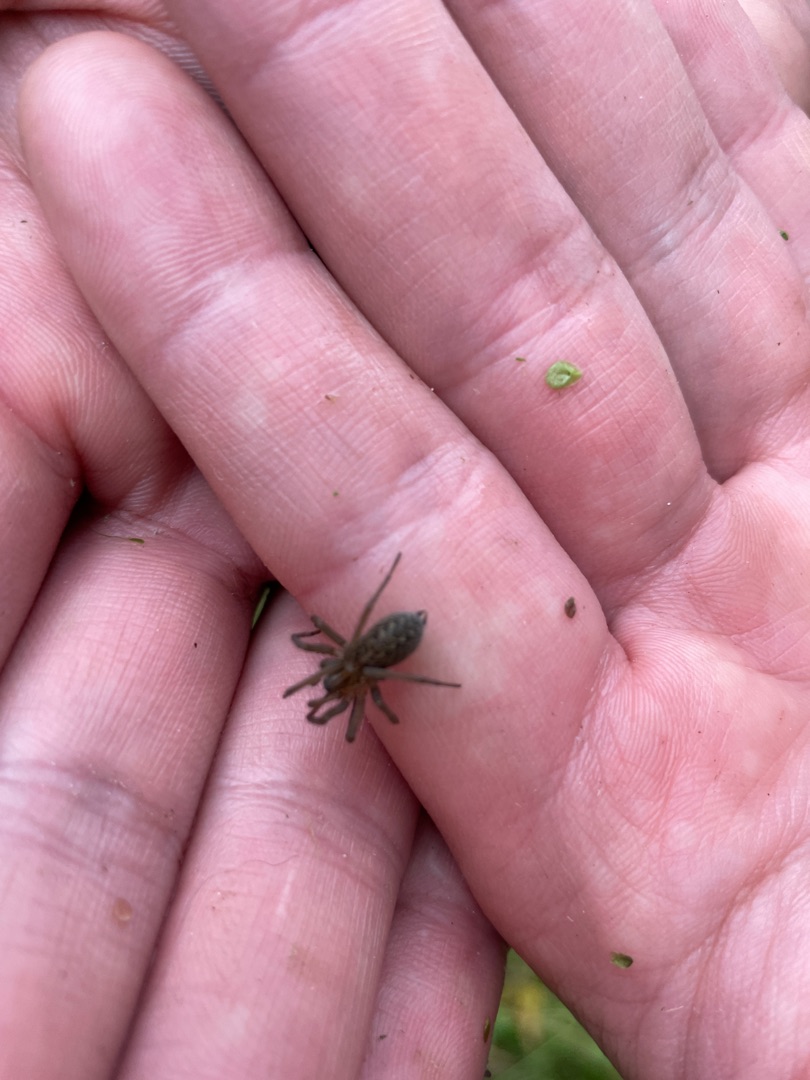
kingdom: Animalia
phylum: Arthropoda
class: Arachnida
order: Araneae
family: Agelenidae
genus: Eratigena
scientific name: Eratigena agrestis
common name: Ruderat-husedderkop
